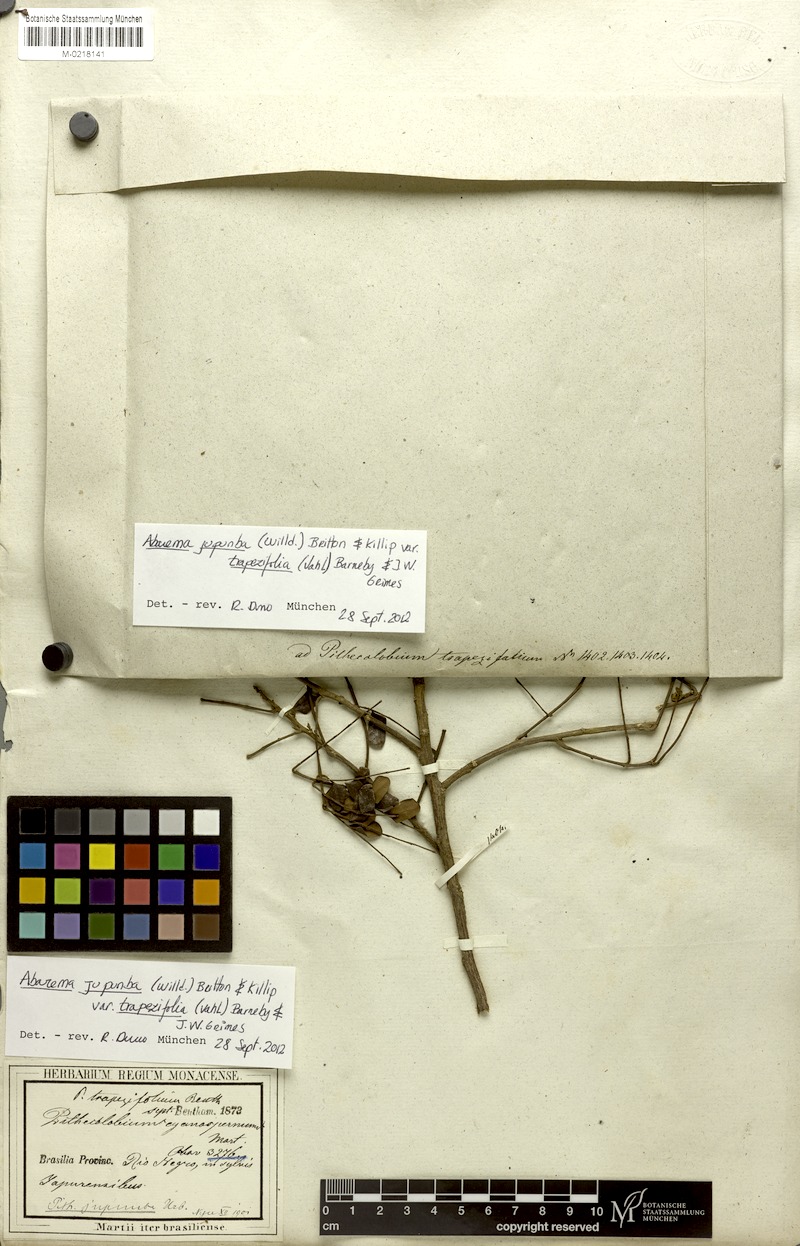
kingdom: Plantae
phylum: Tracheophyta
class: Magnoliopsida
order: Fabales
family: Fabaceae
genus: Jupunba
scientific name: Jupunba trapezifolia
